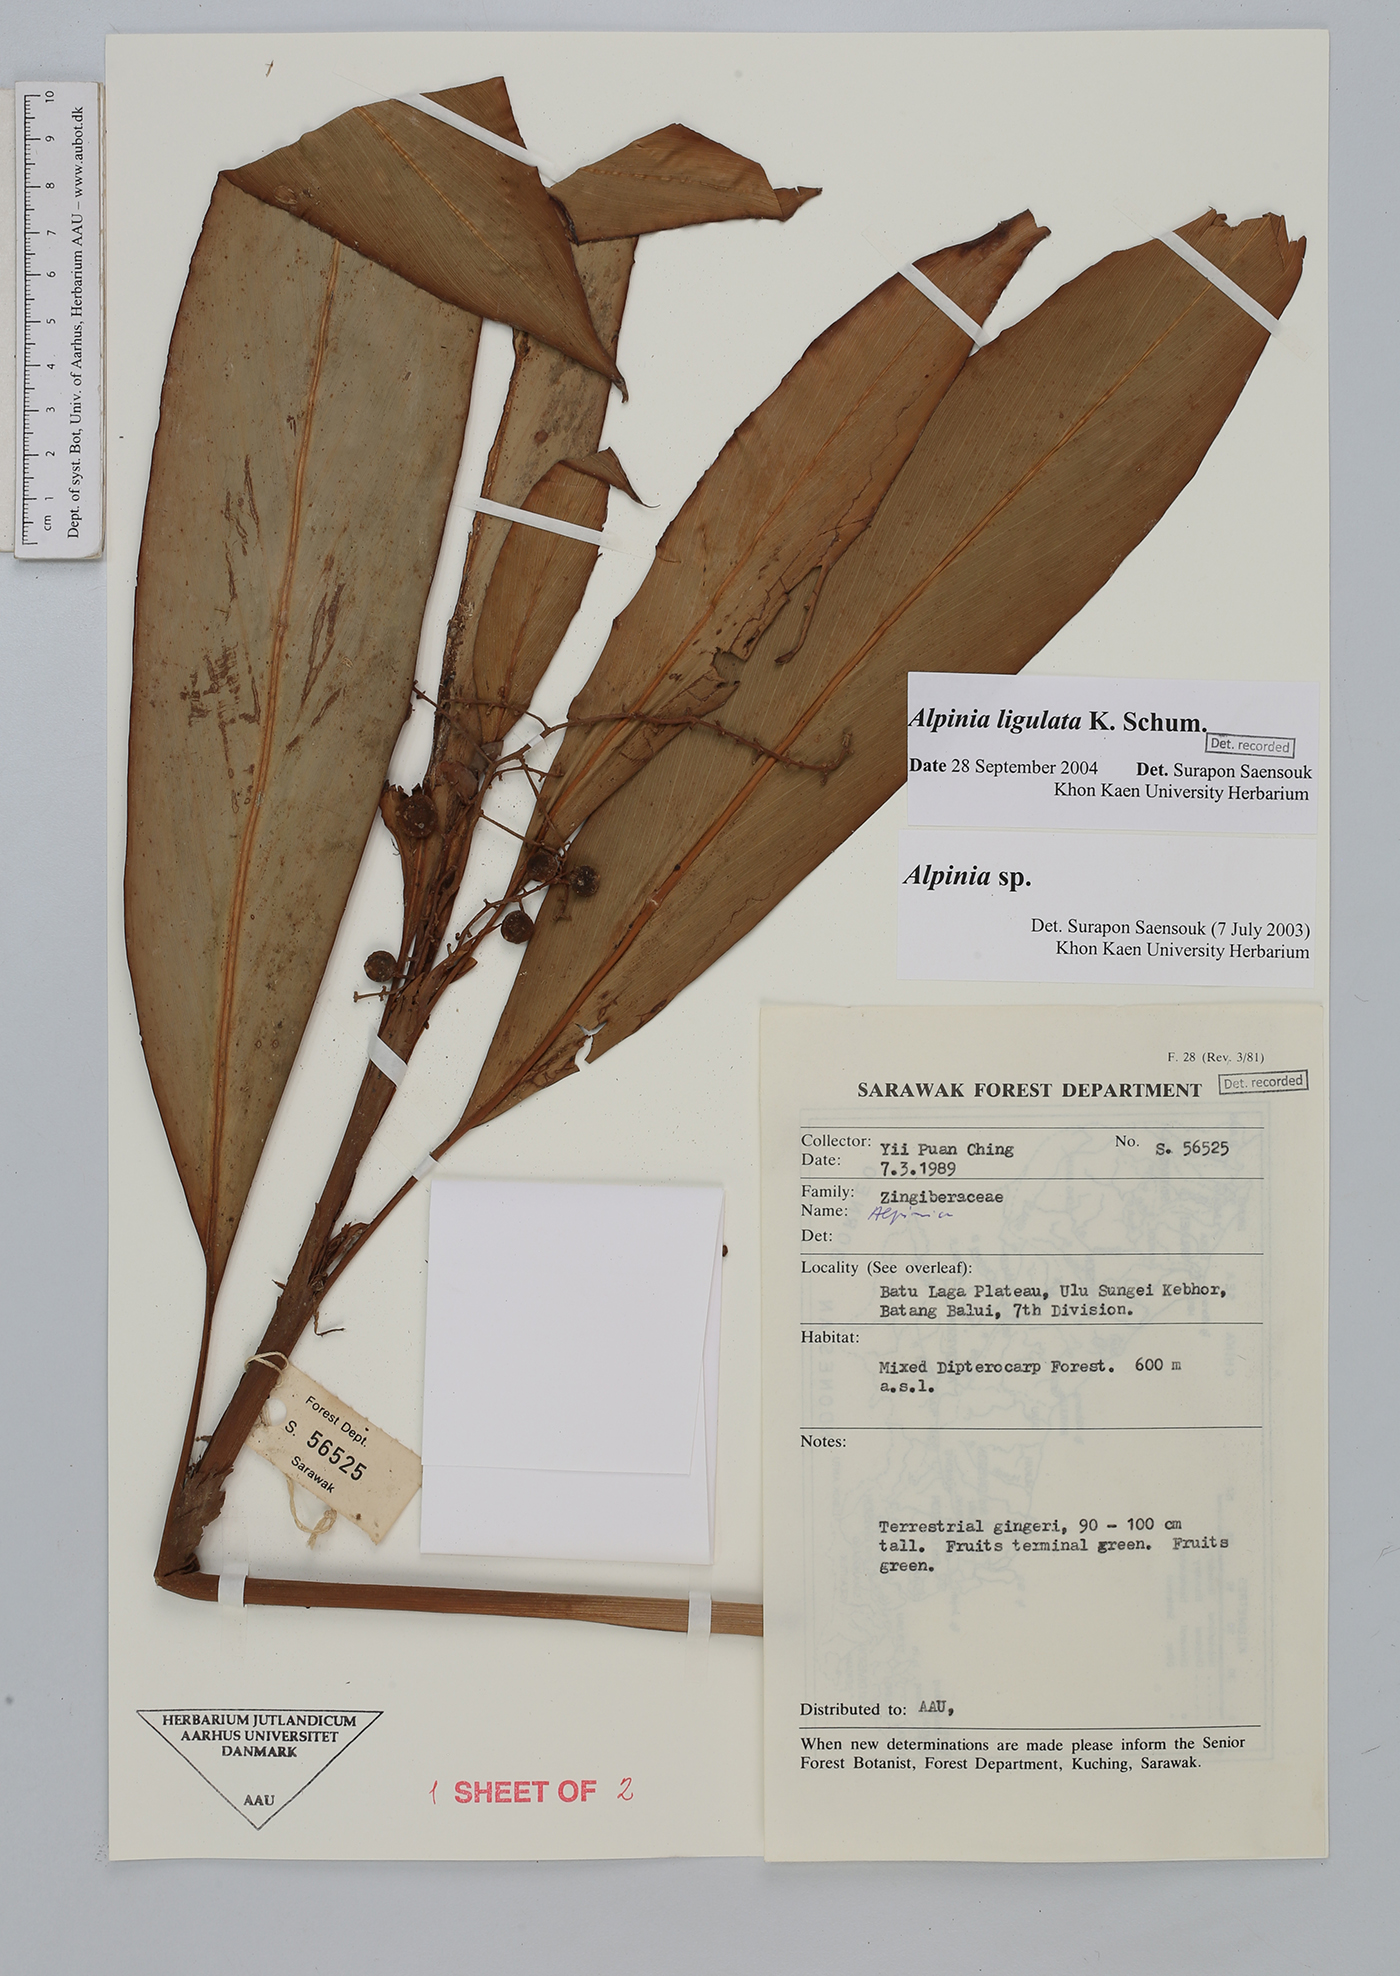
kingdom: Plantae
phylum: Tracheophyta
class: Liliopsida
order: Zingiberales
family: Zingiberaceae
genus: Alpinia
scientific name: Alpinia ligulata
